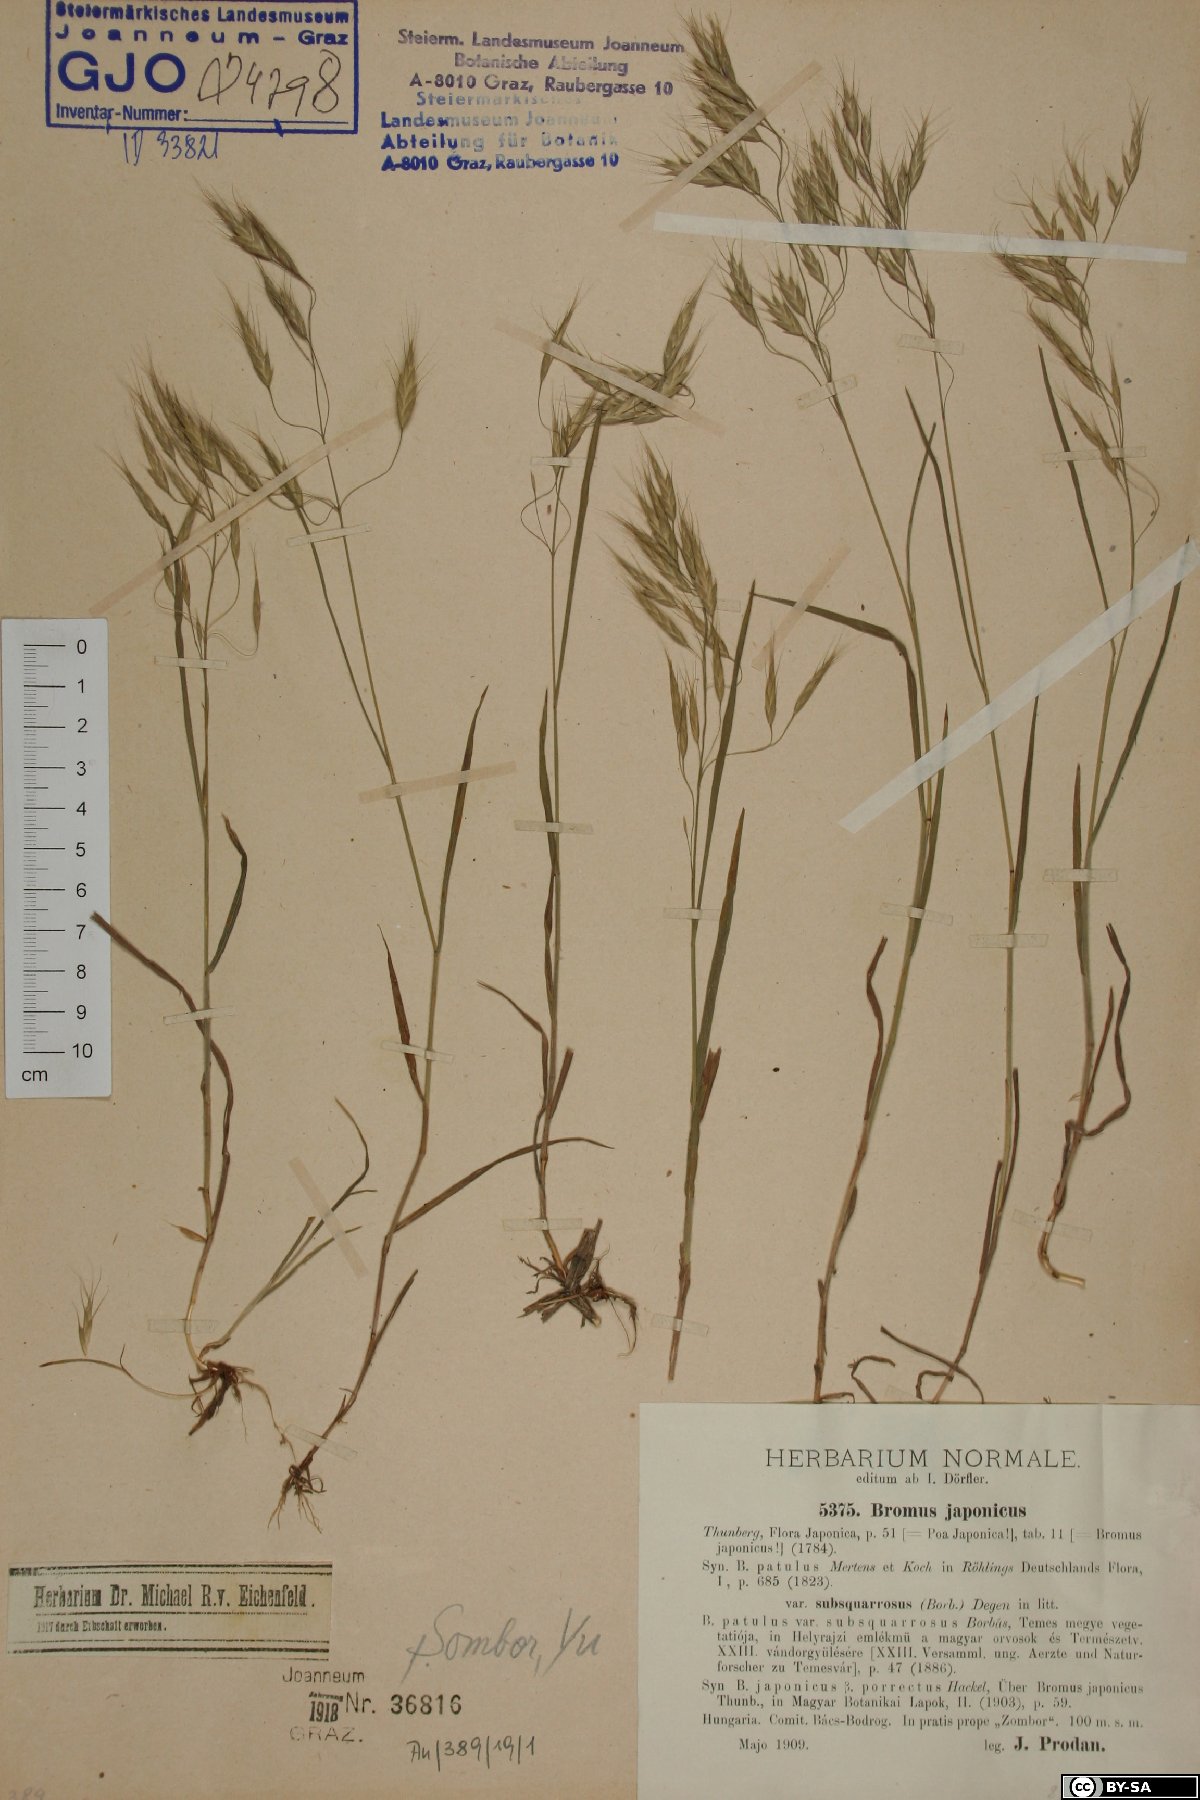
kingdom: Plantae
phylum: Tracheophyta
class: Liliopsida
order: Poales
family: Poaceae
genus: Bromus
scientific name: Bromus japonicus
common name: Japanese brome
